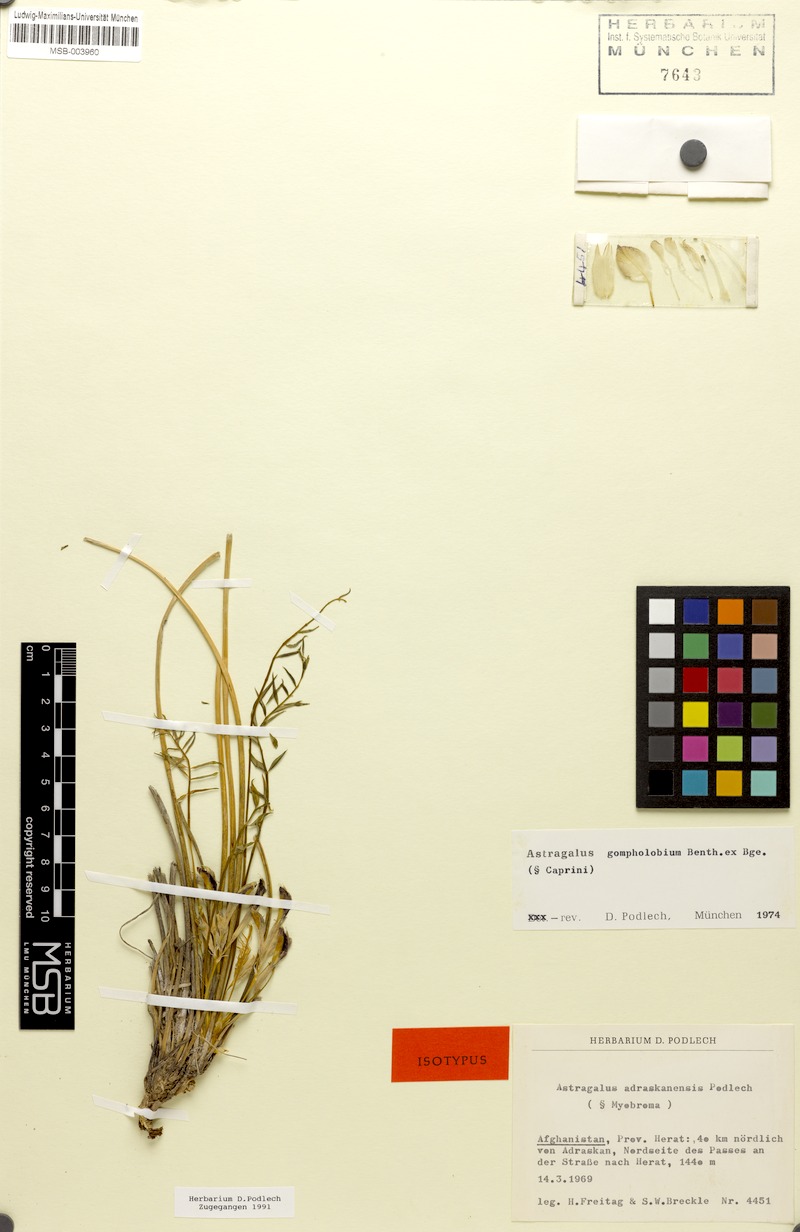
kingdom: Plantae
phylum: Tracheophyta
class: Magnoliopsida
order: Fabales
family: Fabaceae
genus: Astragalus
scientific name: Astragalus gompholobium
